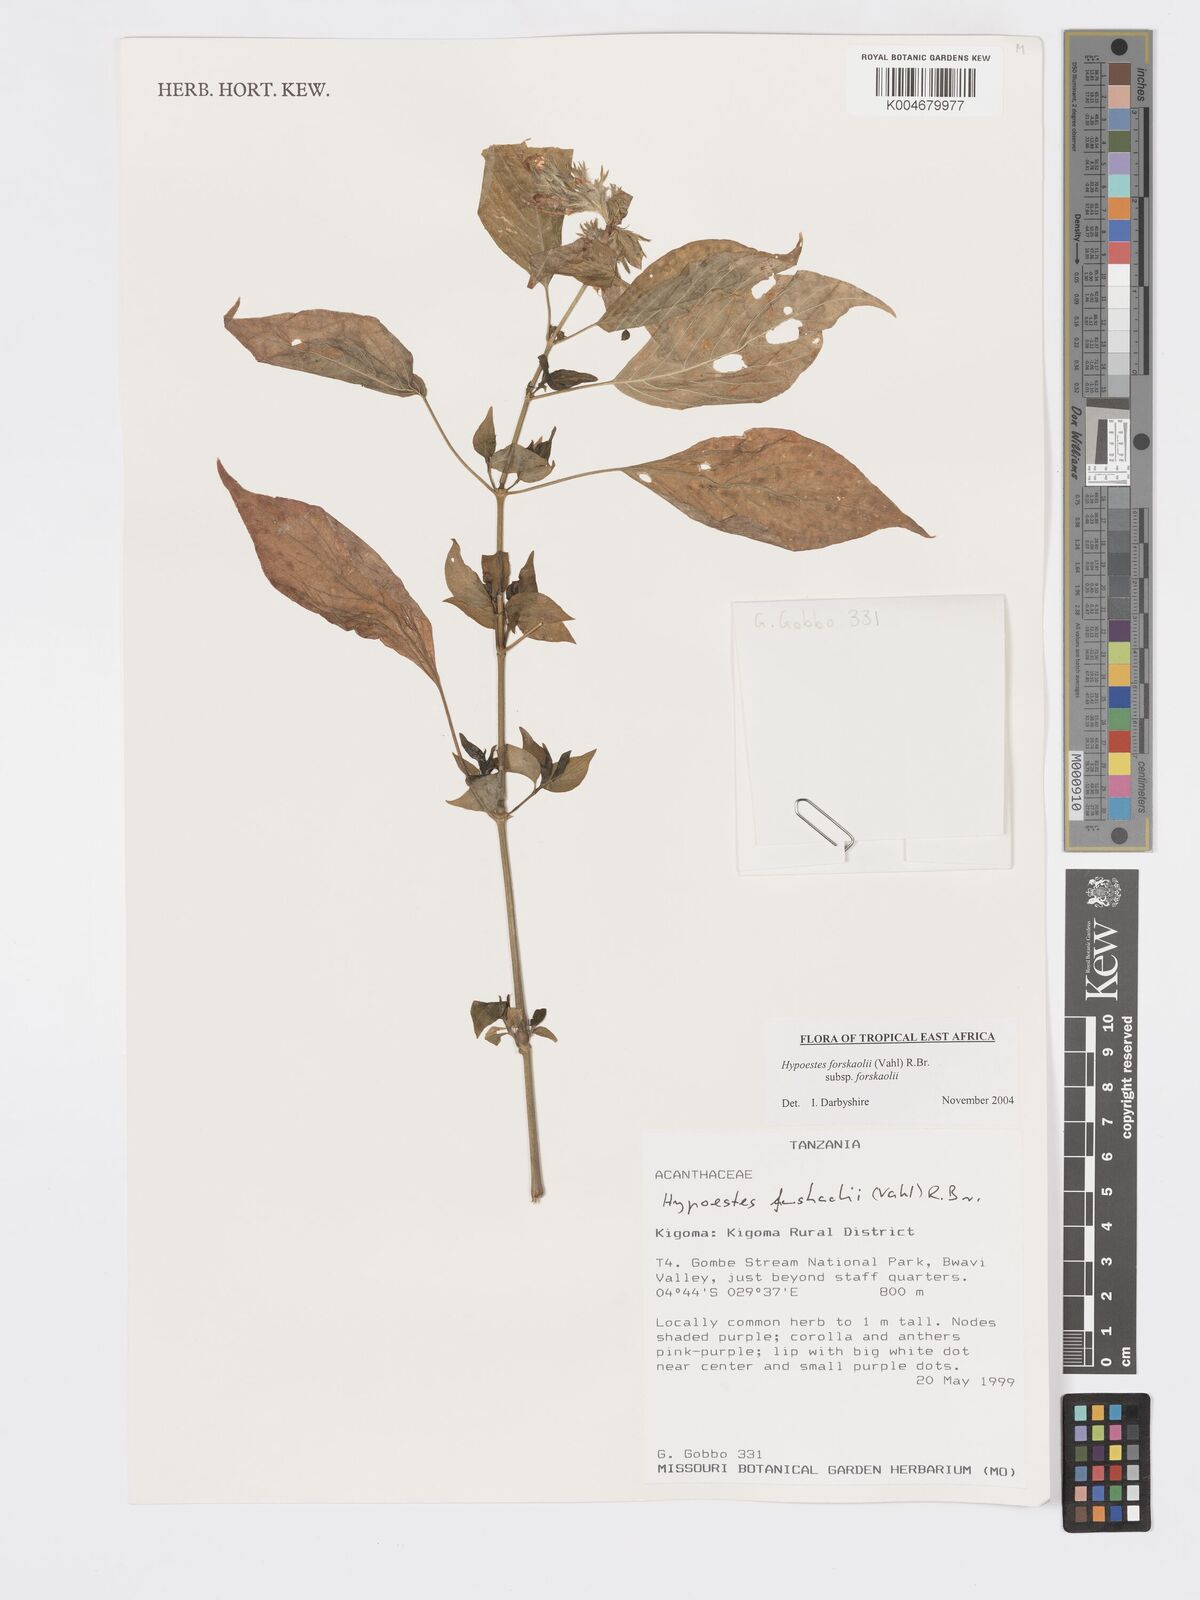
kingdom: Plantae
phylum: Tracheophyta
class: Magnoliopsida
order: Lamiales
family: Acanthaceae
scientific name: Acanthaceae
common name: Acanthaceae
